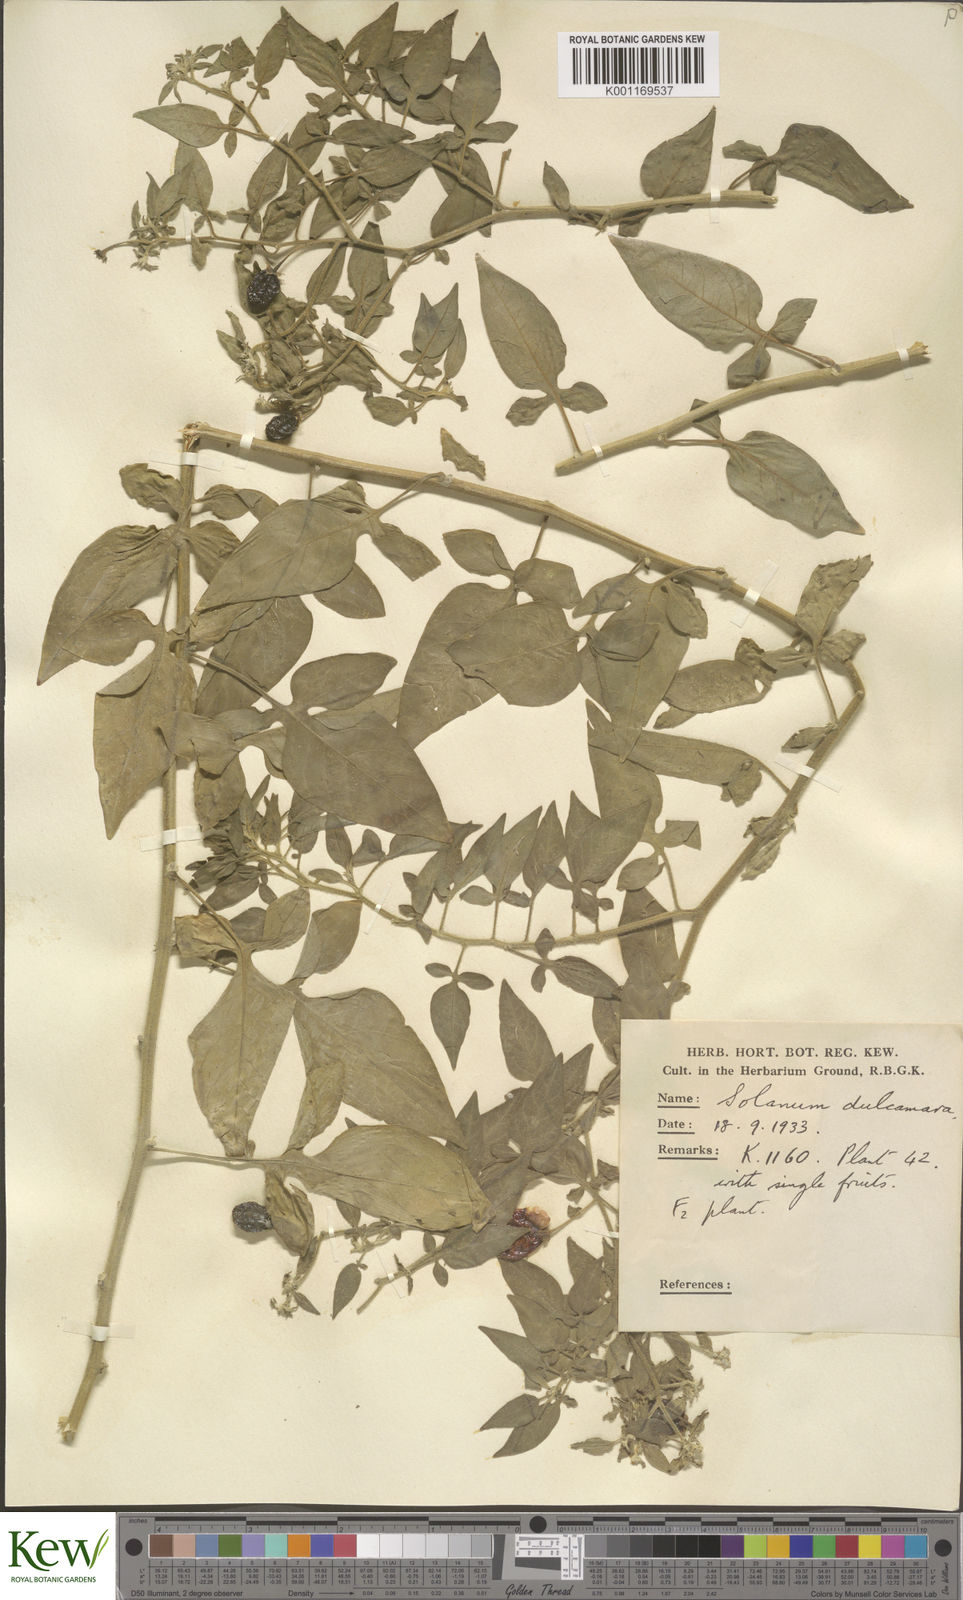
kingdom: Plantae
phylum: Tracheophyta
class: Magnoliopsida
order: Solanales
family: Solanaceae
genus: Solanum
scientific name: Solanum dulcamara
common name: Climbing nightshade
